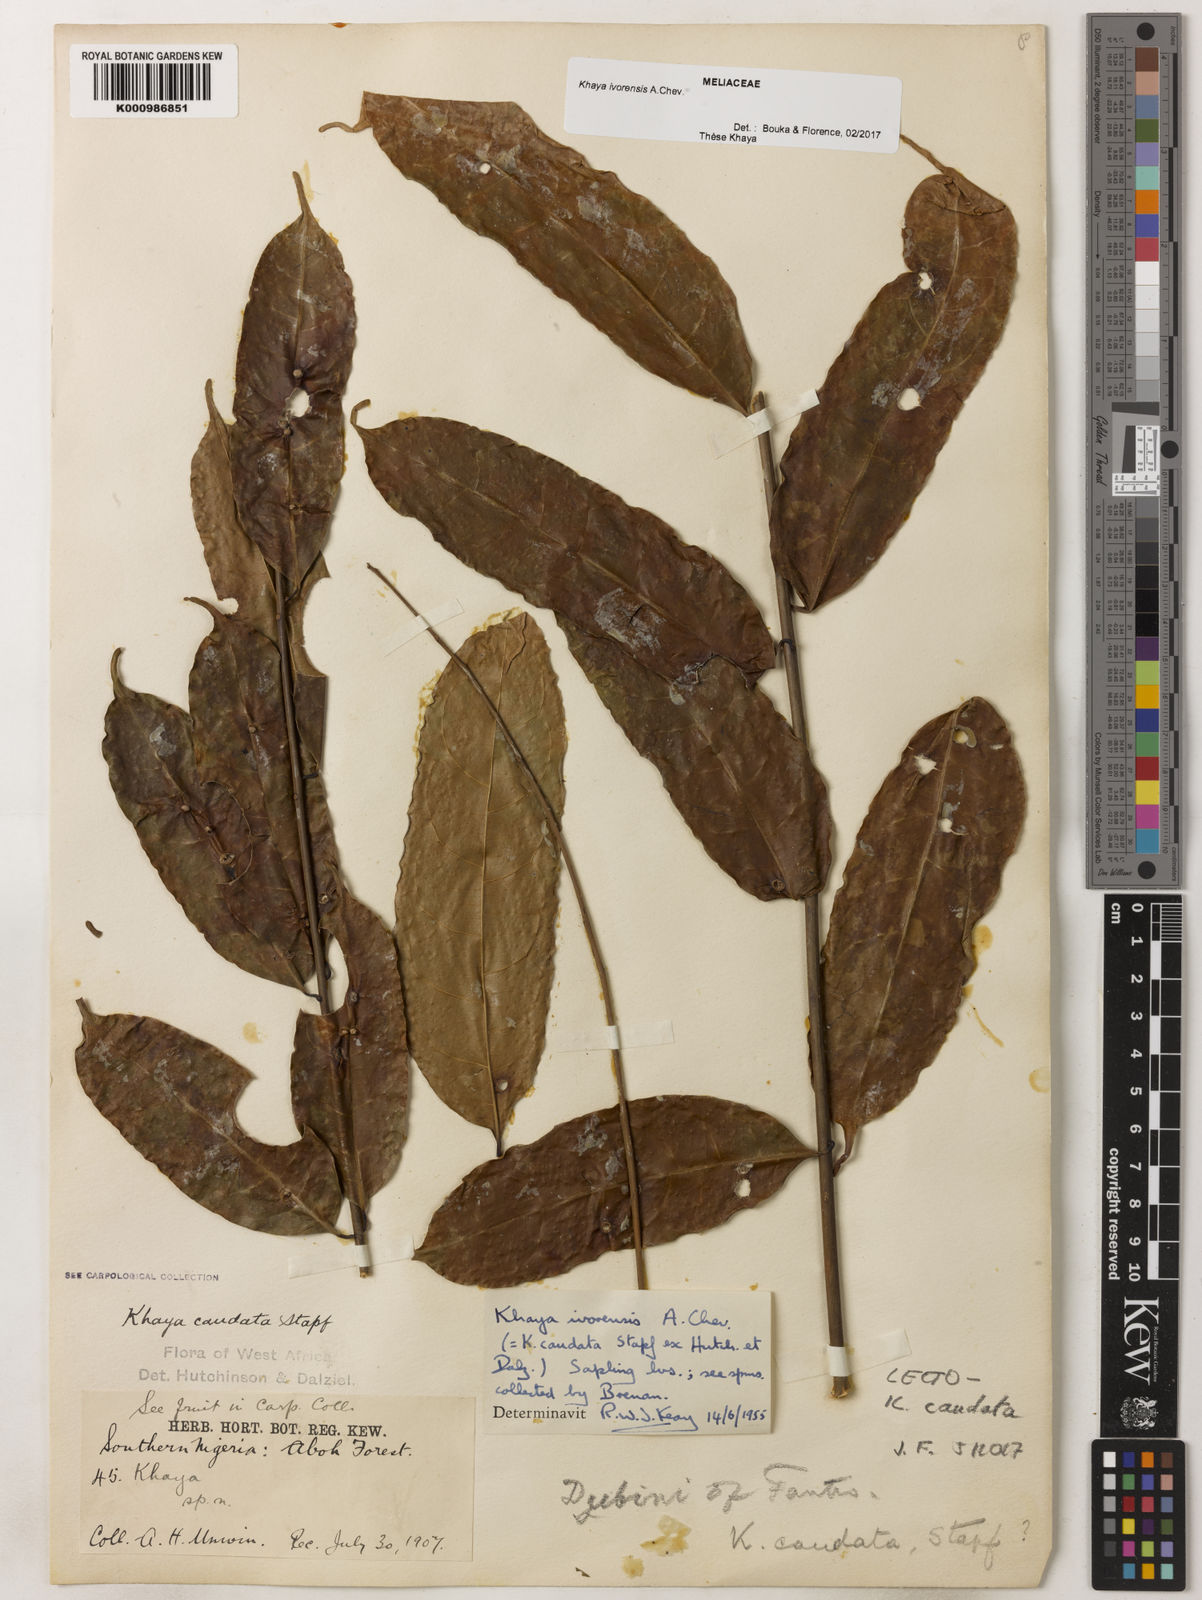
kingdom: Plantae
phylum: Tracheophyta
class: Magnoliopsida
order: Sapindales
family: Meliaceae
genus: Khaya
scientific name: Khaya ivorensis
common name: African mahogany
